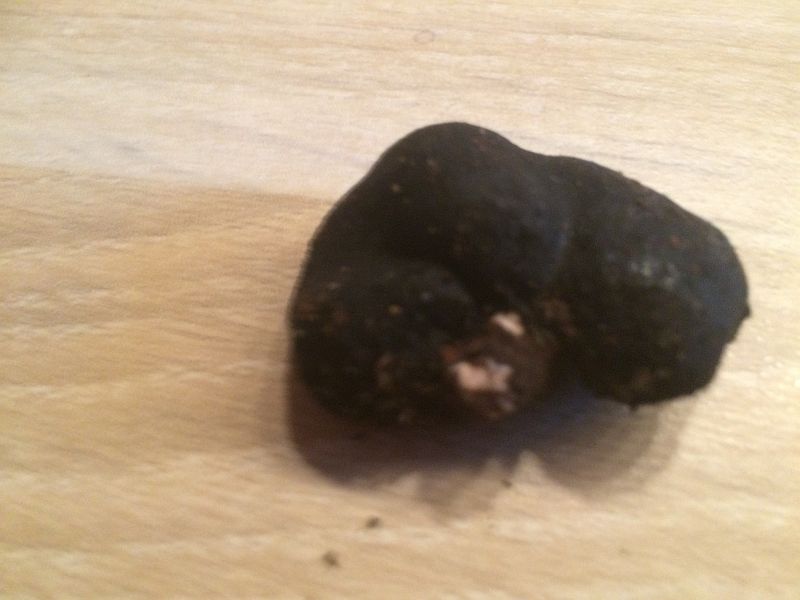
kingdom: Fungi
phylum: Ascomycota
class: Sordariomycetes
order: Xylariales
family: Xylariaceae
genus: Xylaria
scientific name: Xylaria polymorpha
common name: kølle-stødsvamp
